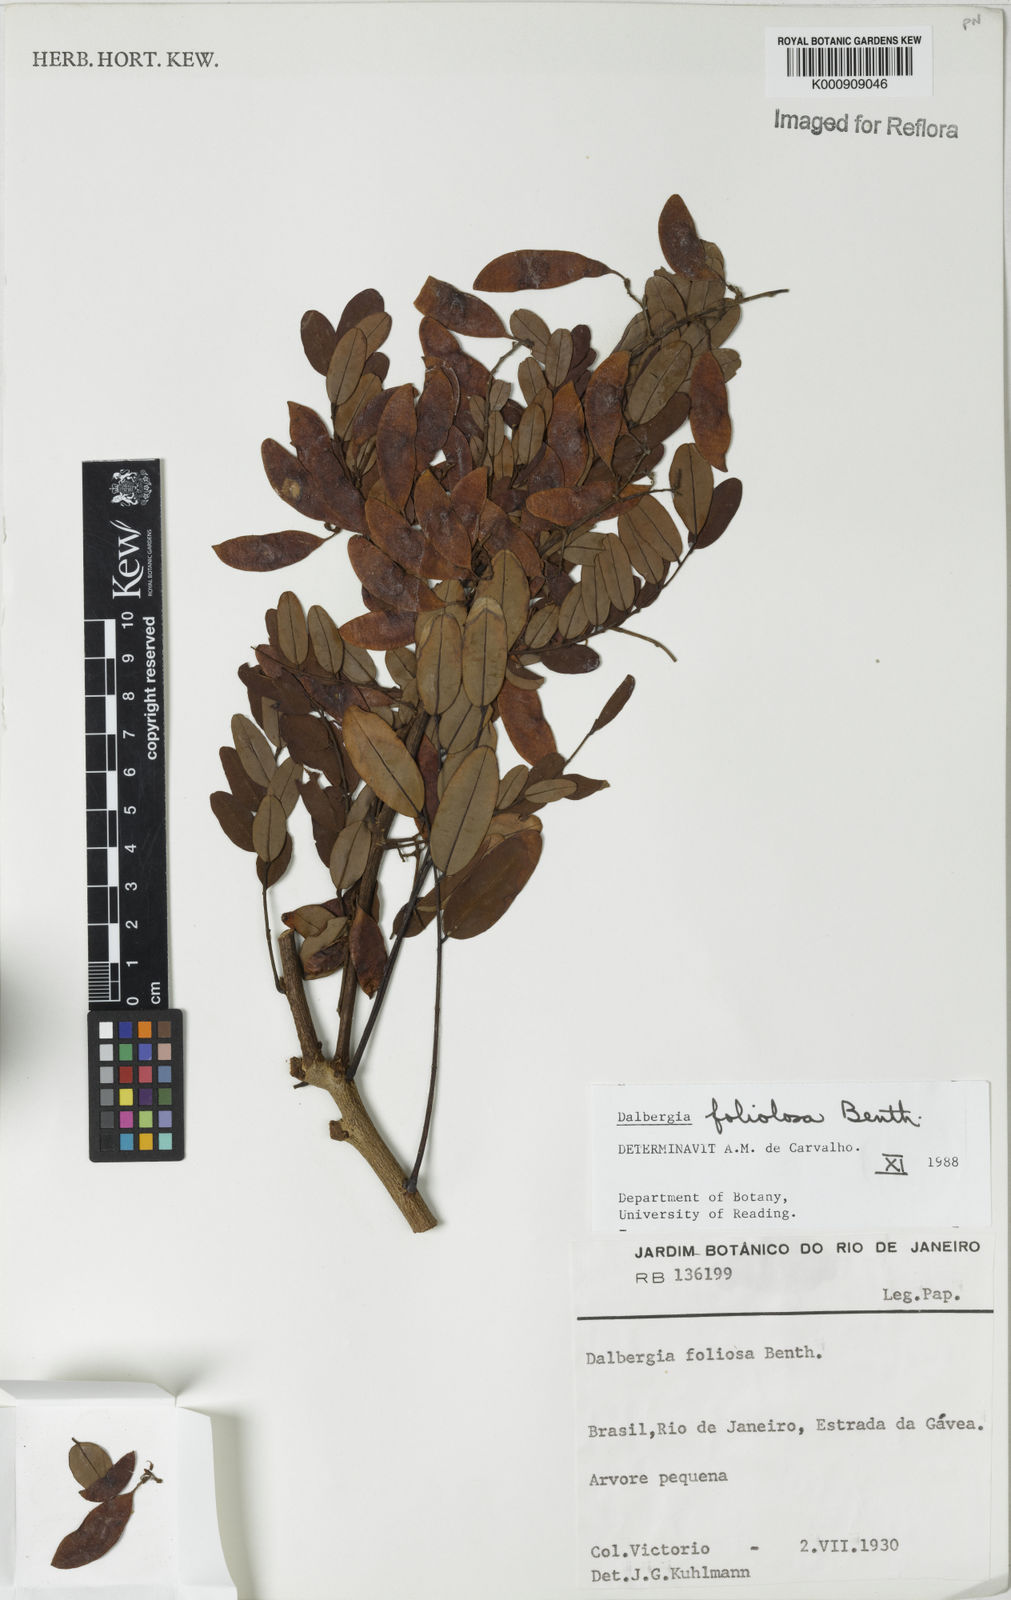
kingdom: Plantae
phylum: Tracheophyta
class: Magnoliopsida
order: Fabales
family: Fabaceae
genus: Dalbergia
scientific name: Dalbergia foliolosa
